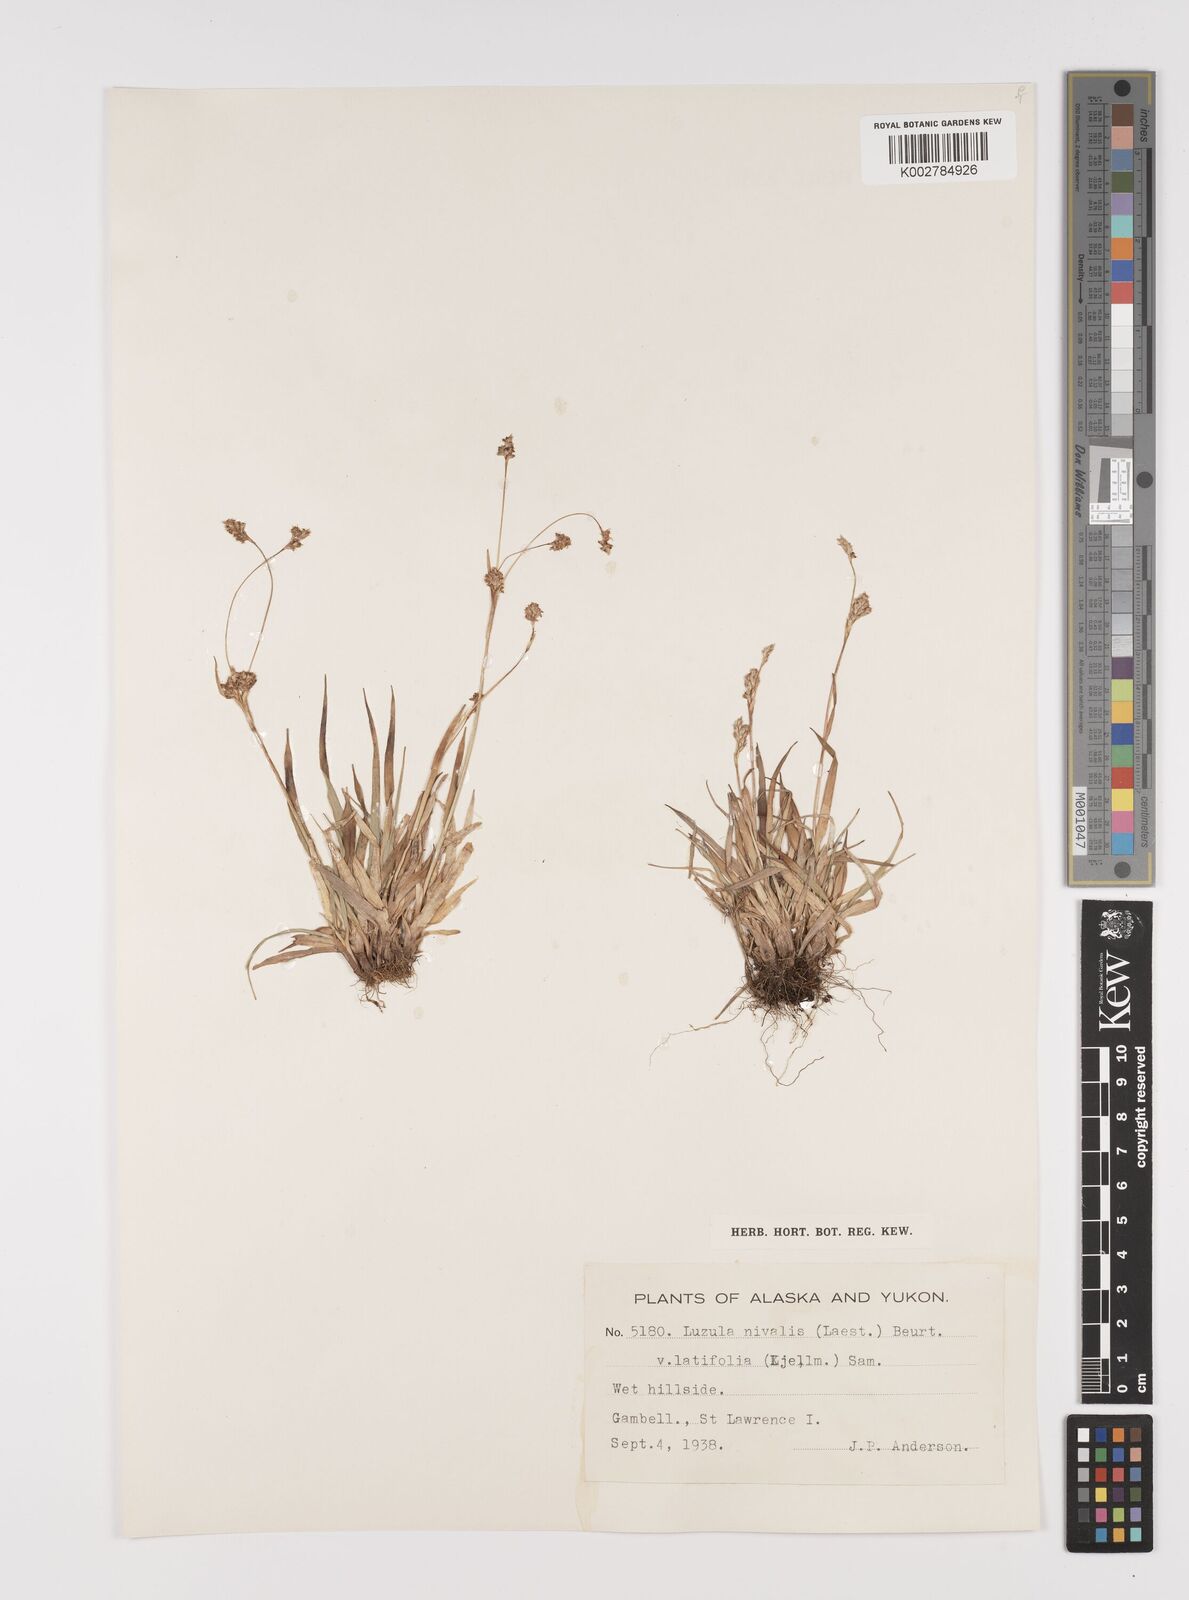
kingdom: Plantae
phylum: Tracheophyta
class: Liliopsida
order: Poales
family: Juncaceae
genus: Luzula
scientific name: Luzula nivalis
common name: Arctic woodrush
